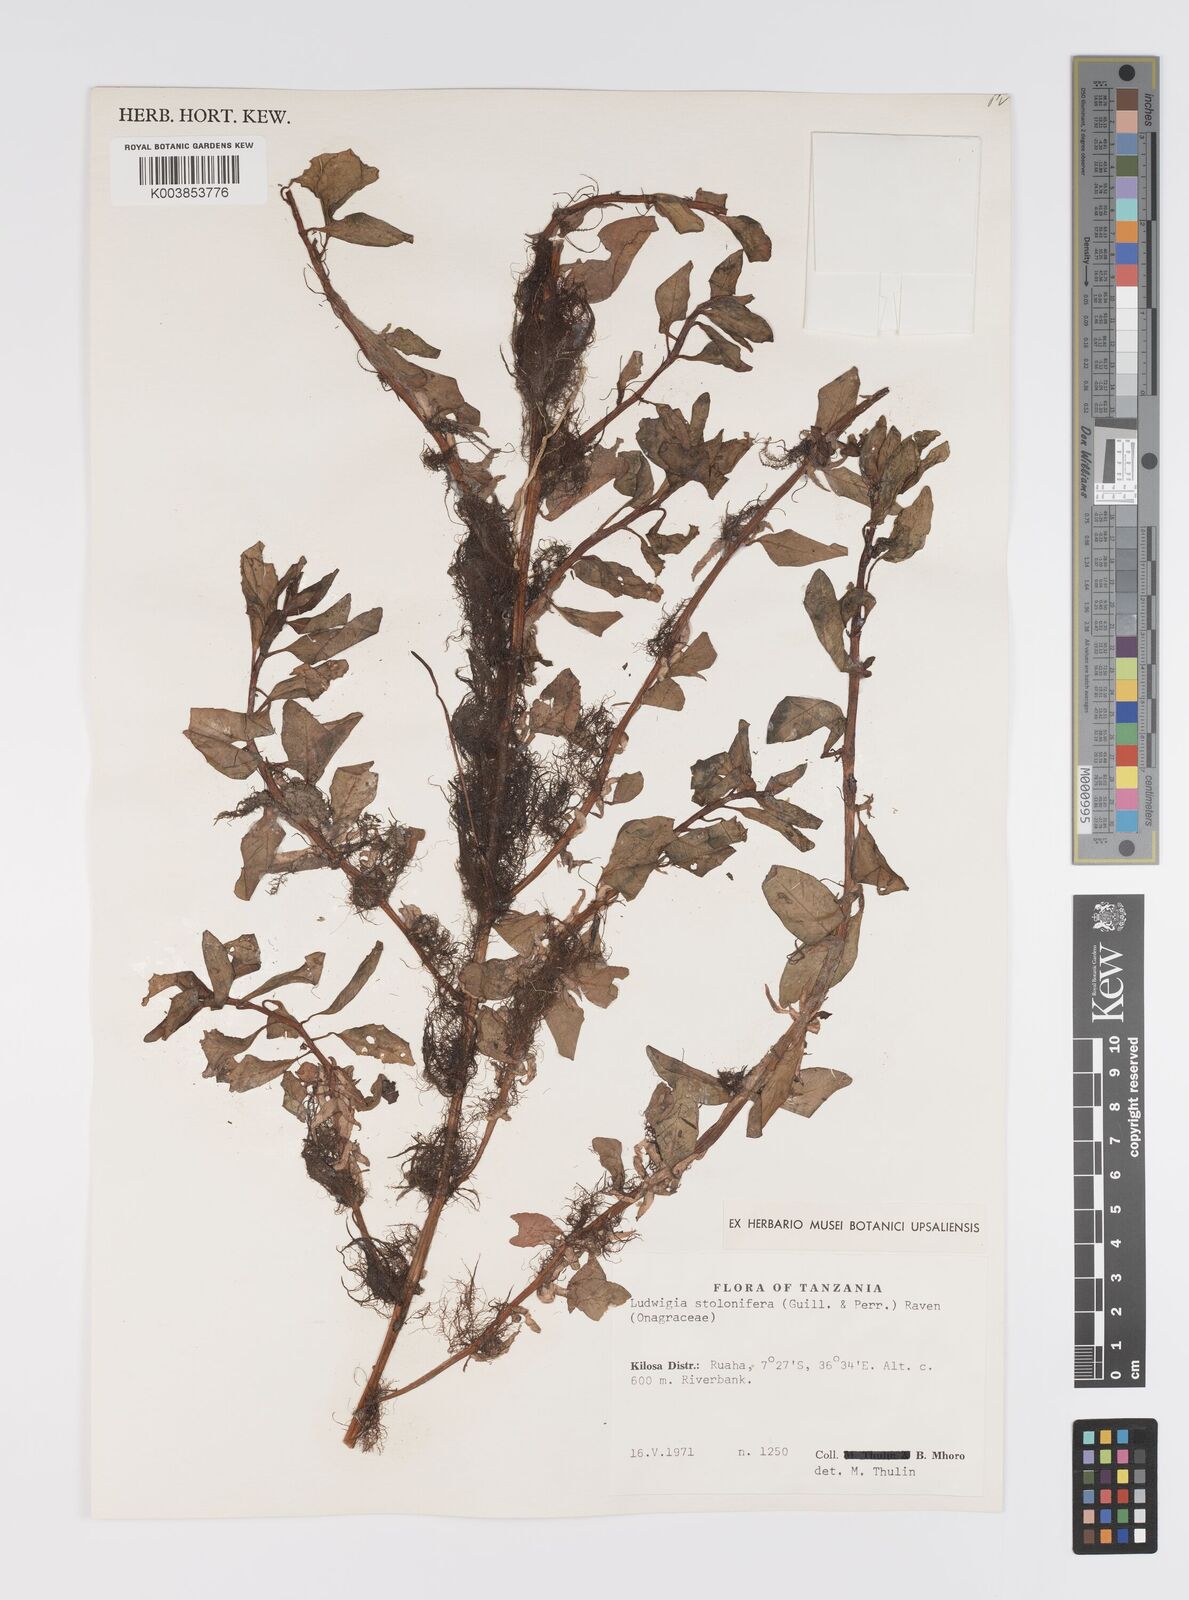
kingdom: Plantae
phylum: Tracheophyta
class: Magnoliopsida
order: Myrtales
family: Onagraceae
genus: Ludwigia
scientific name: Ludwigia repens
